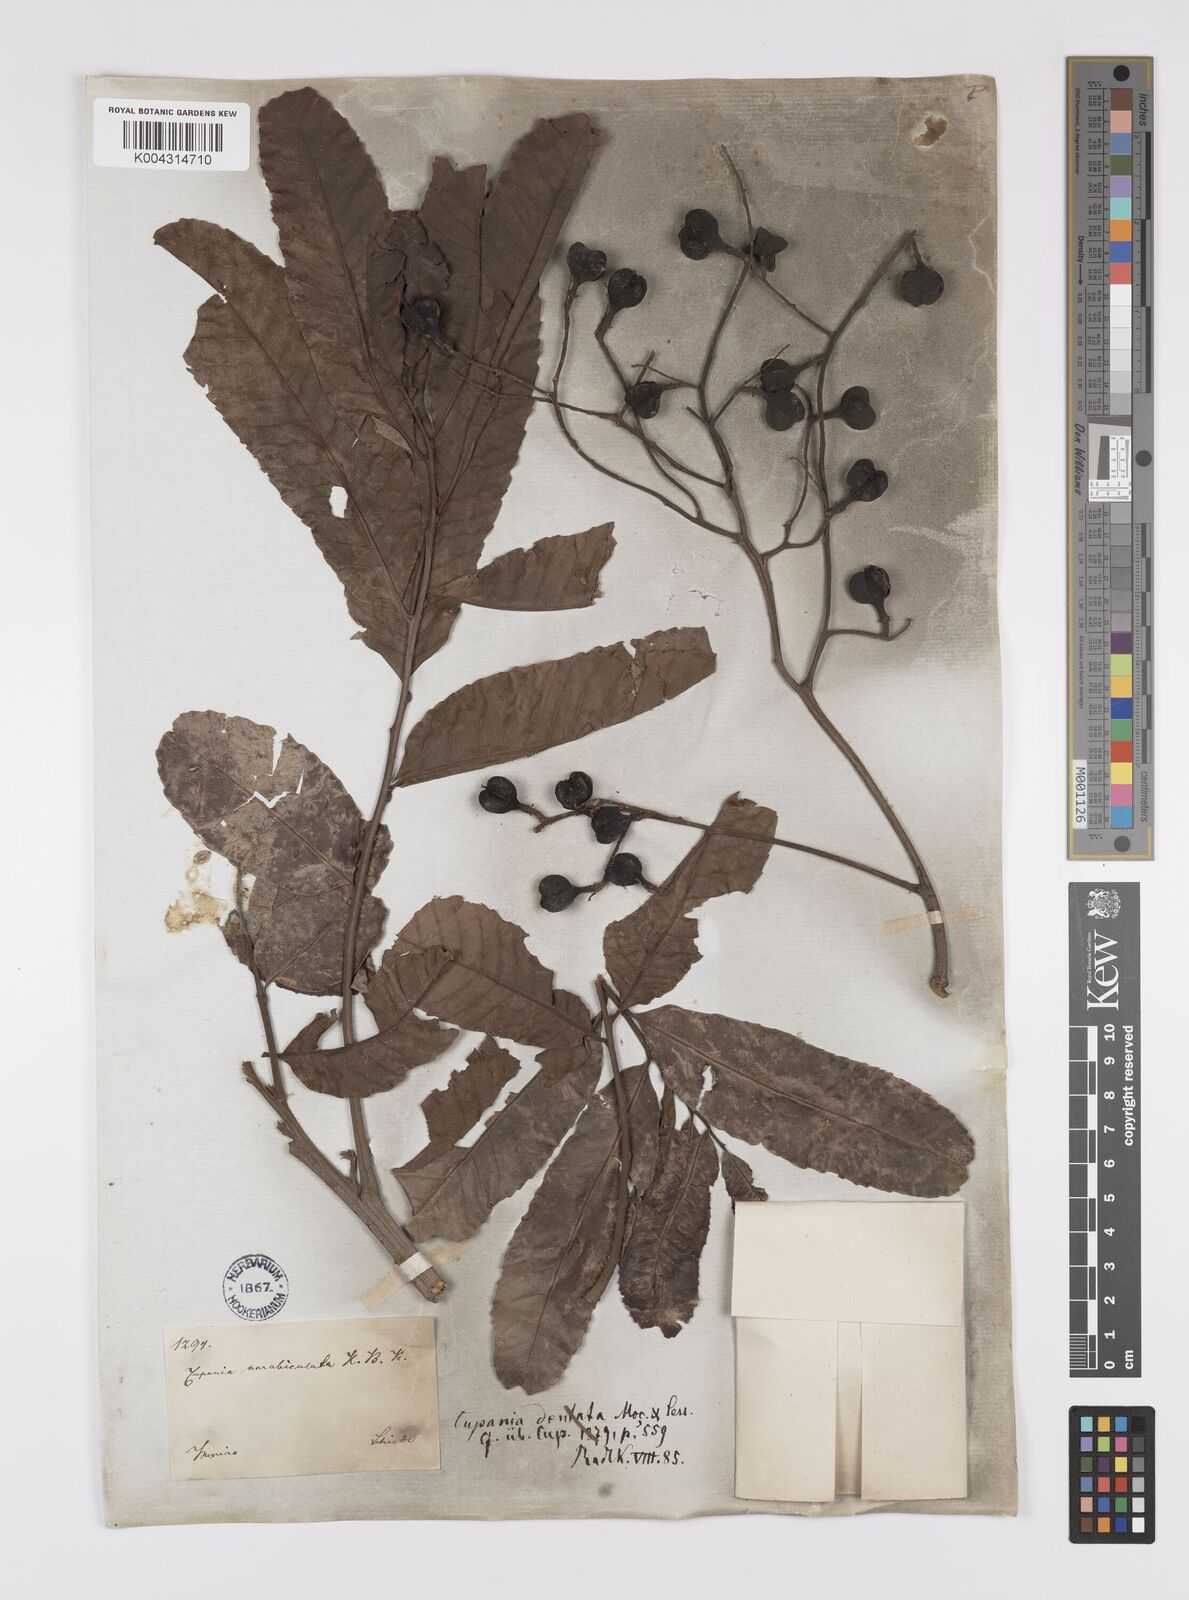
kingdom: Plantae
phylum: Tracheophyta
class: Magnoliopsida
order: Sapindales
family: Sapindaceae
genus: Cupania
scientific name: Cupania dentata
